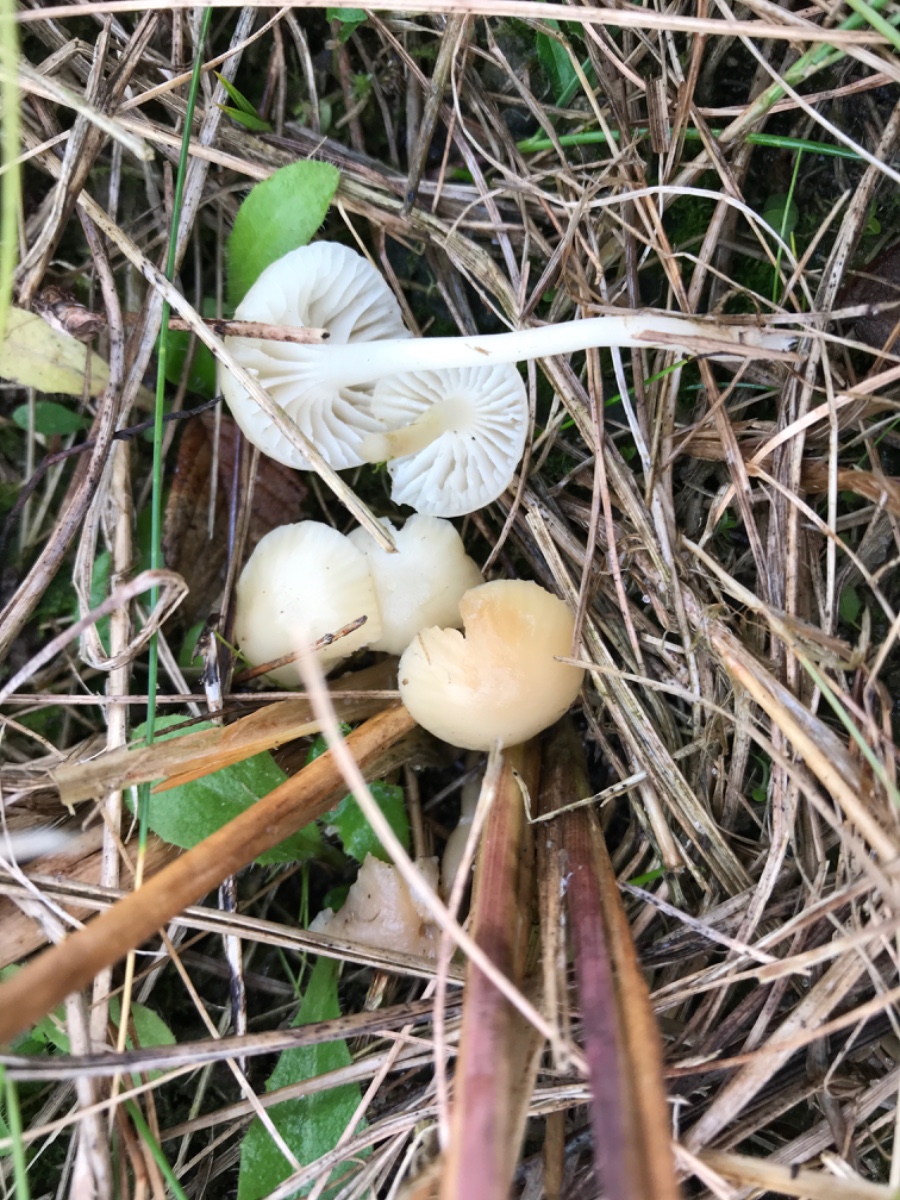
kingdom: Fungi
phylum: Basidiomycota
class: Agaricomycetes
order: Agaricales
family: Hygrophoraceae
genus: Cuphophyllus
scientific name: Cuphophyllus virgineus
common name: snehvid vokshat
